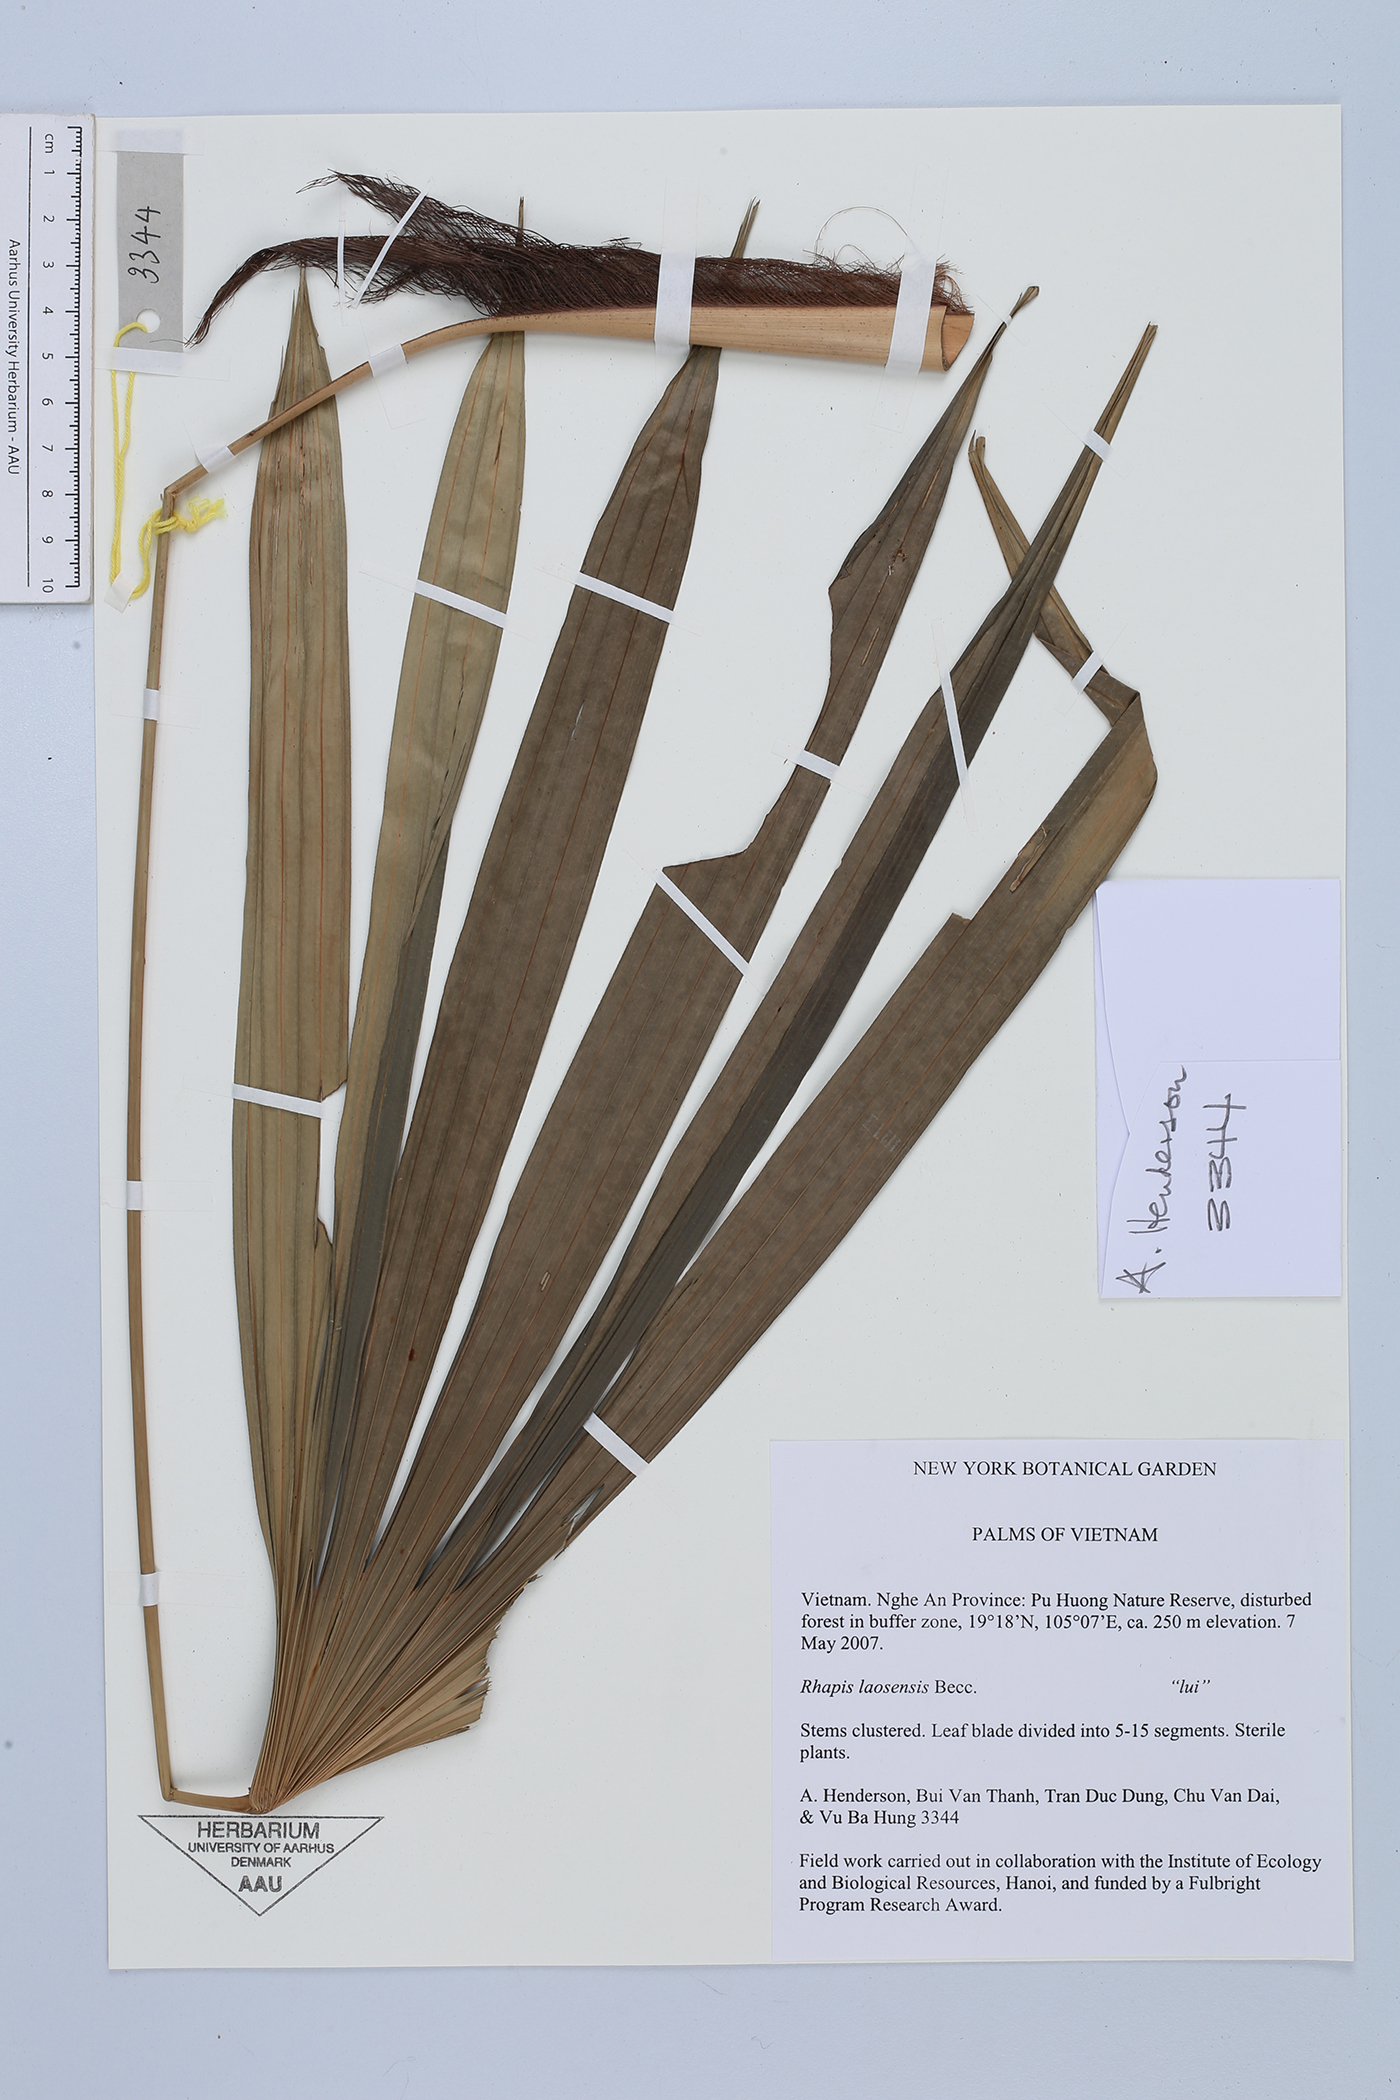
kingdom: Plantae
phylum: Tracheophyta
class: Liliopsida
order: Arecales
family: Arecaceae
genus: Rhapis
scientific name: Rhapis laosensis
